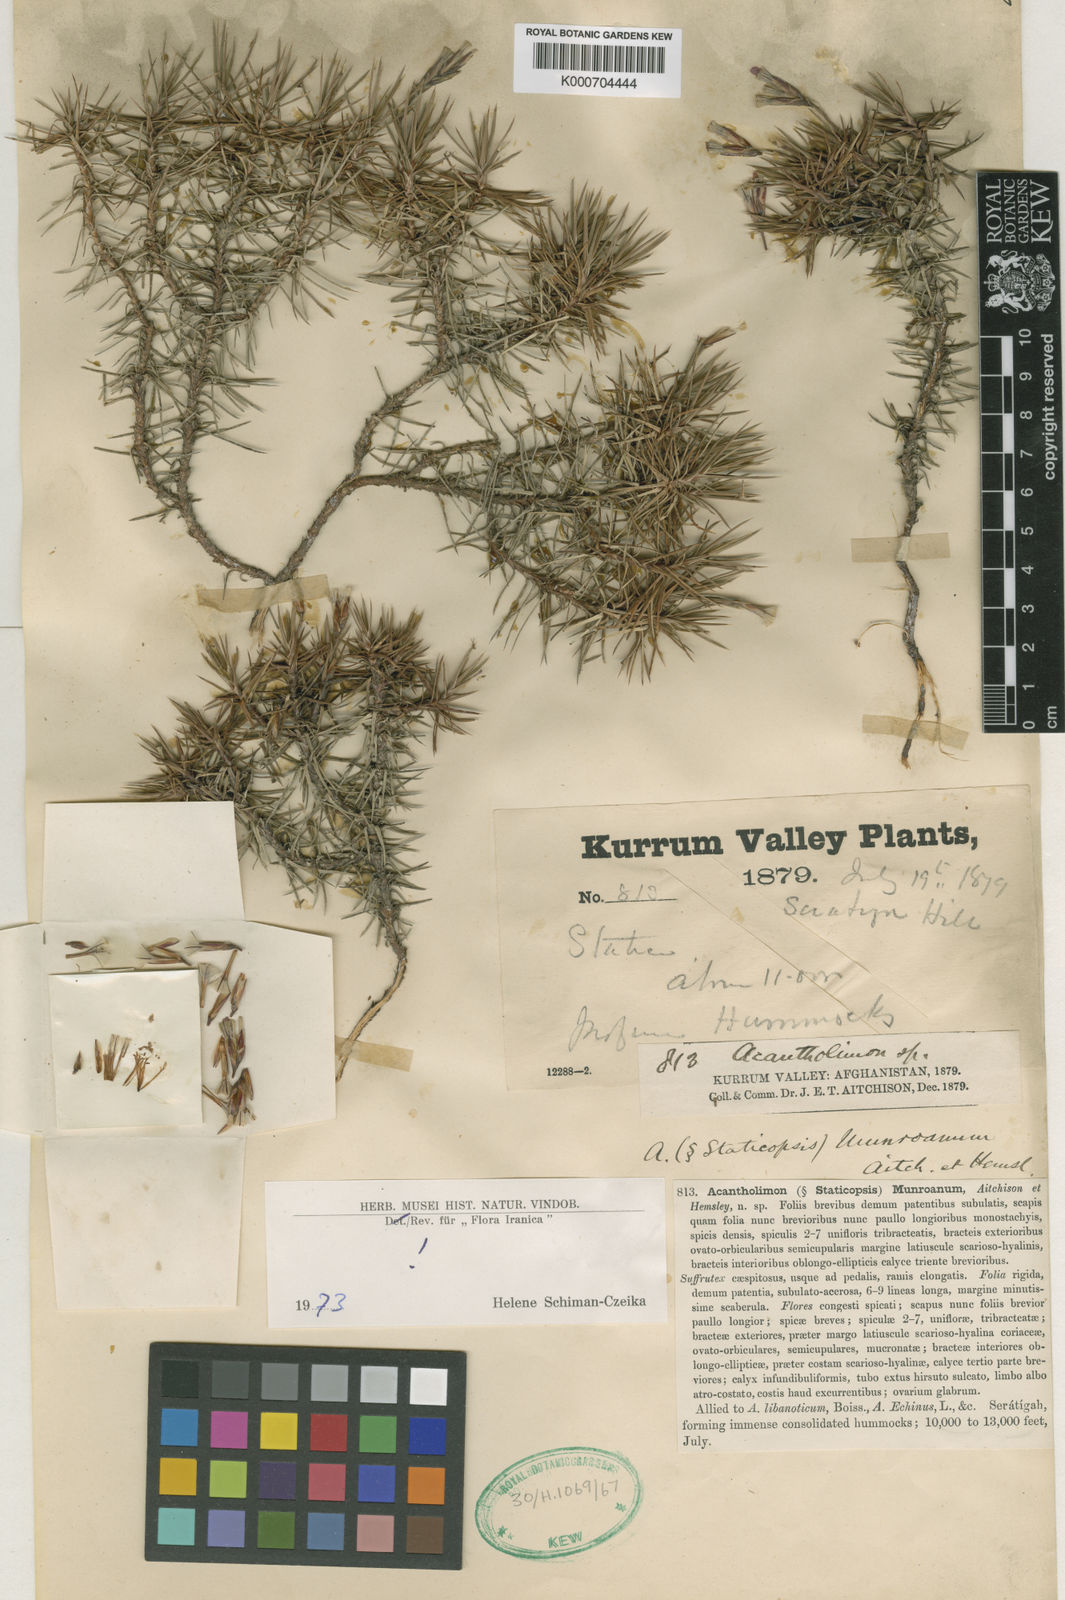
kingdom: Plantae
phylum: Tracheophyta
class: Magnoliopsida
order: Caryophyllales
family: Plumbaginaceae
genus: Acantholimon
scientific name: Acantholimon auganum
